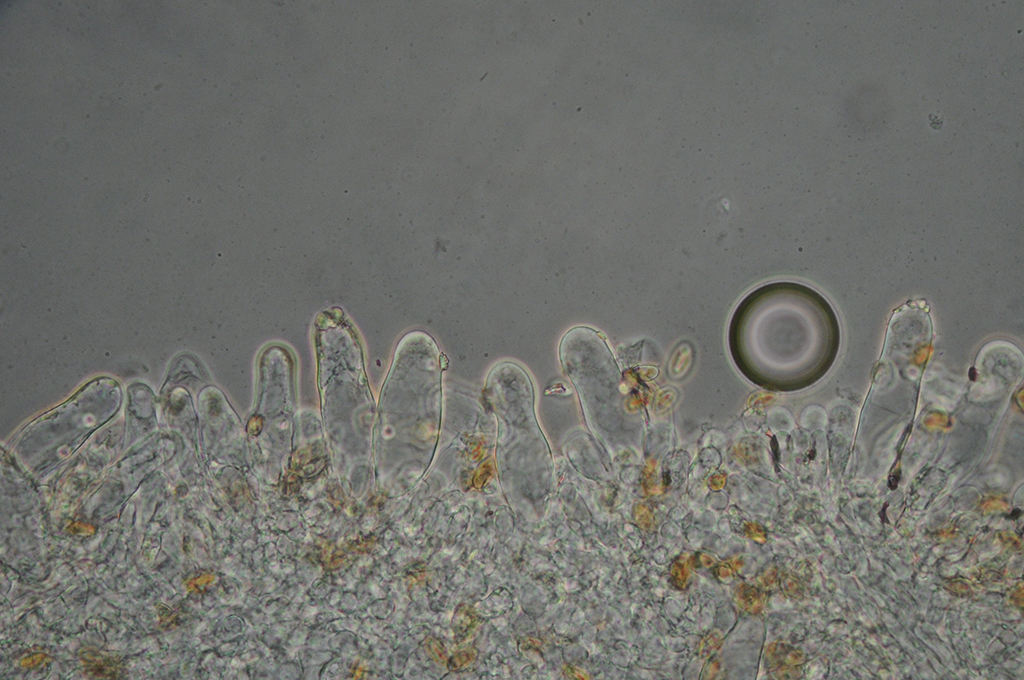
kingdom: Fungi
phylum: Basidiomycota
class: Agaricomycetes
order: Agaricales
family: Inocybaceae
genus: Inocybe
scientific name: Inocybe squarrosa
